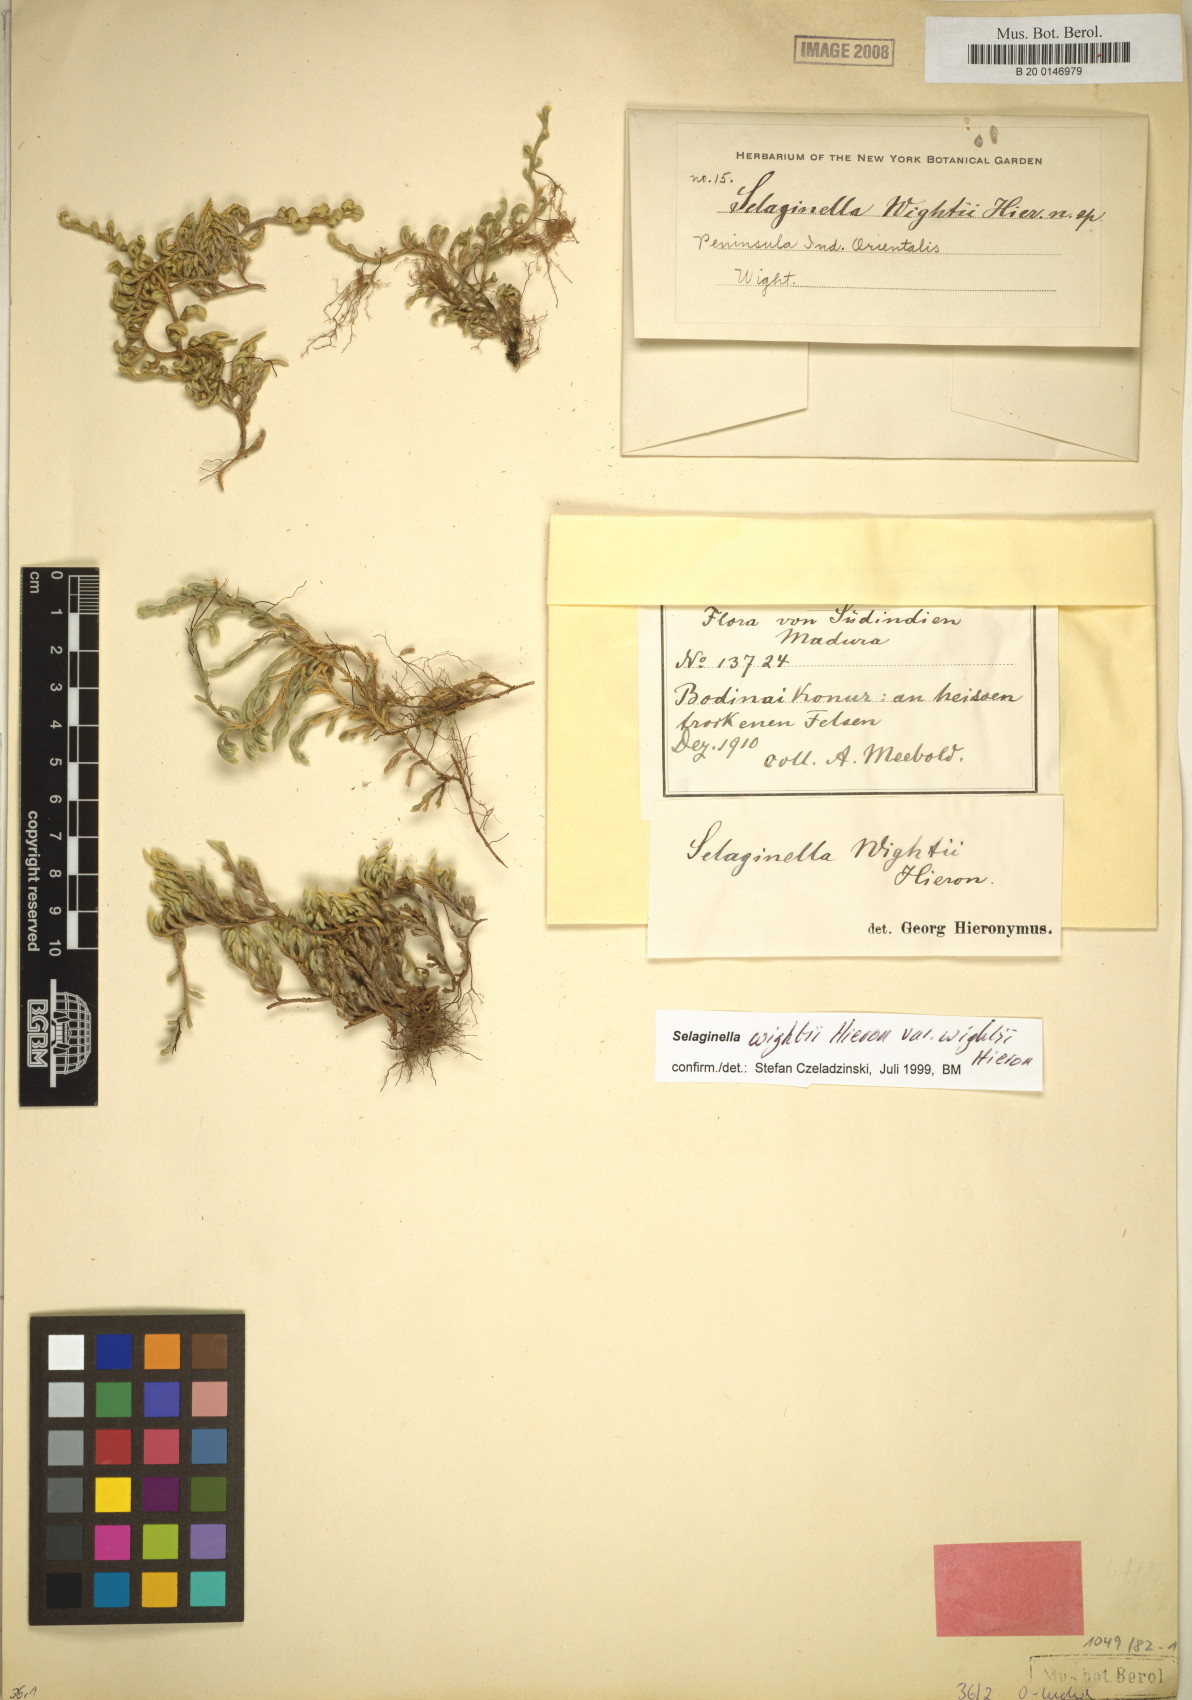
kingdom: Plantae
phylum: Tracheophyta
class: Lycopodiopsida
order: Selaginellales
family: Selaginellaceae
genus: Selaginella
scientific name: Selaginella wightii
